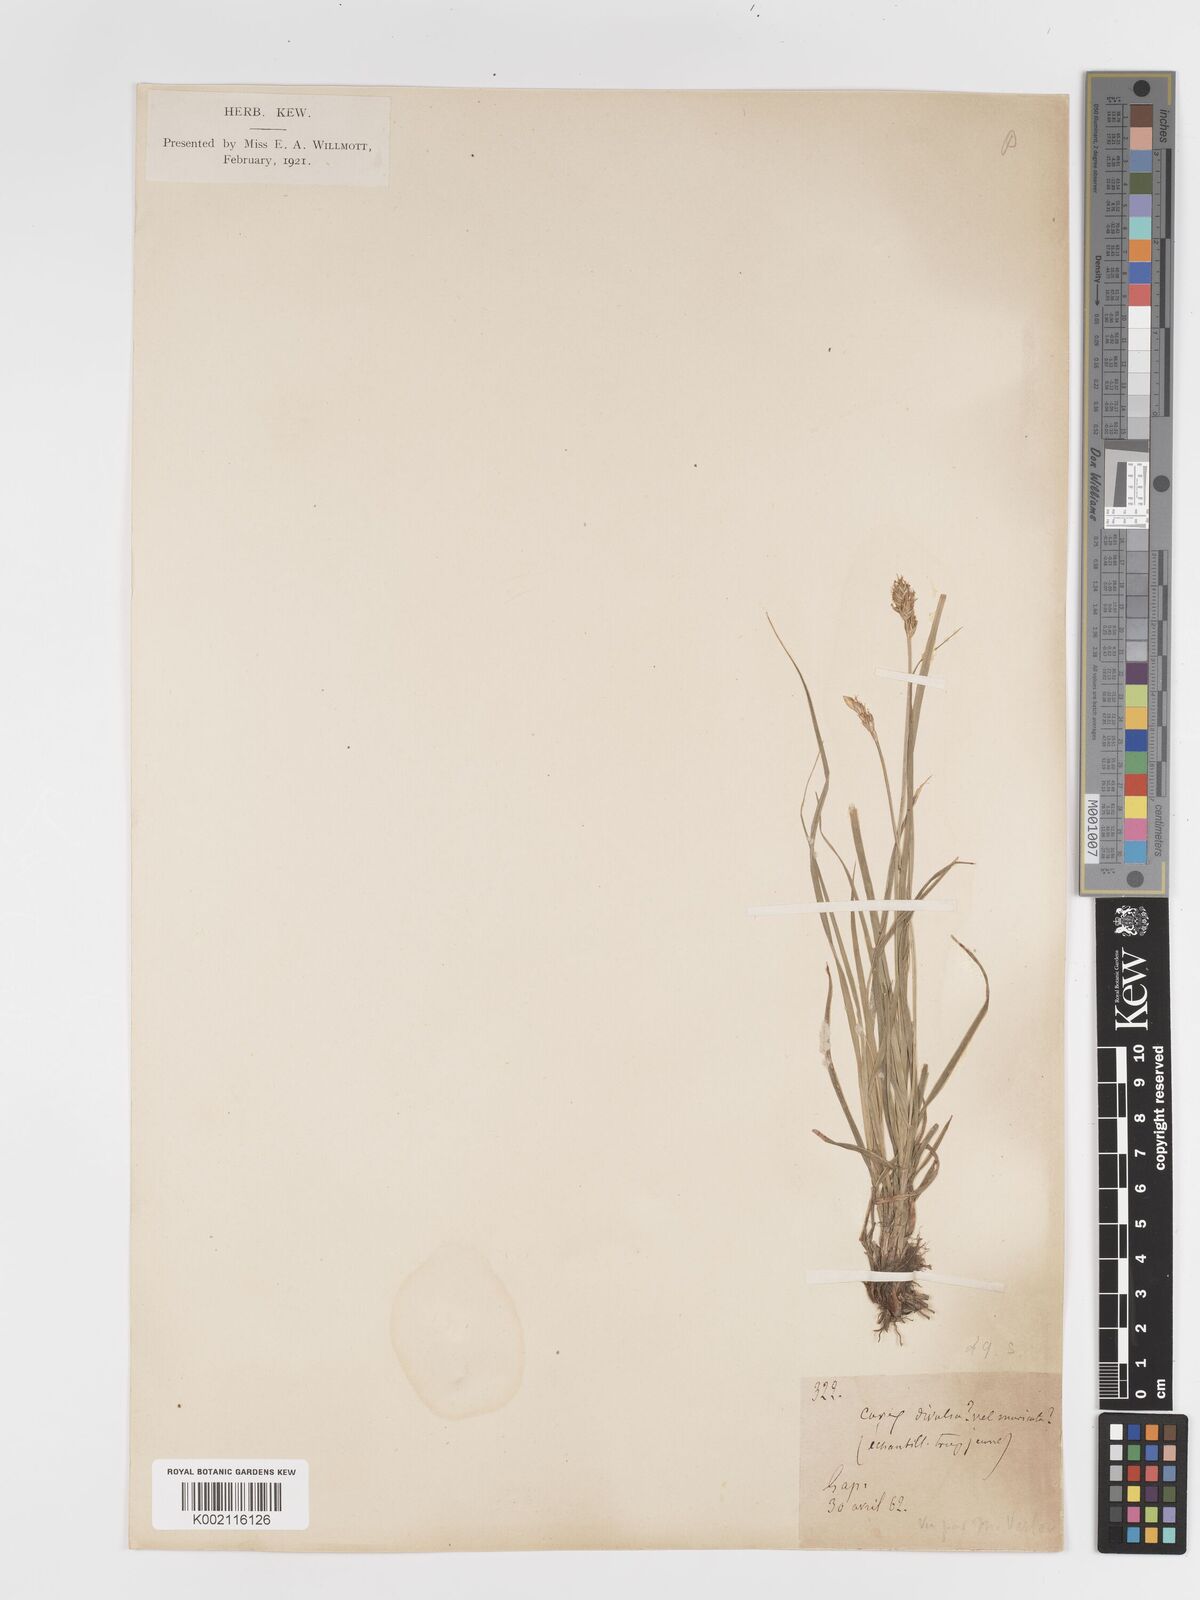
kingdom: Plantae
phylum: Tracheophyta
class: Liliopsida
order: Poales
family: Cyperaceae
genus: Carex
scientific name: Carex spicata
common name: Spiked sedge
